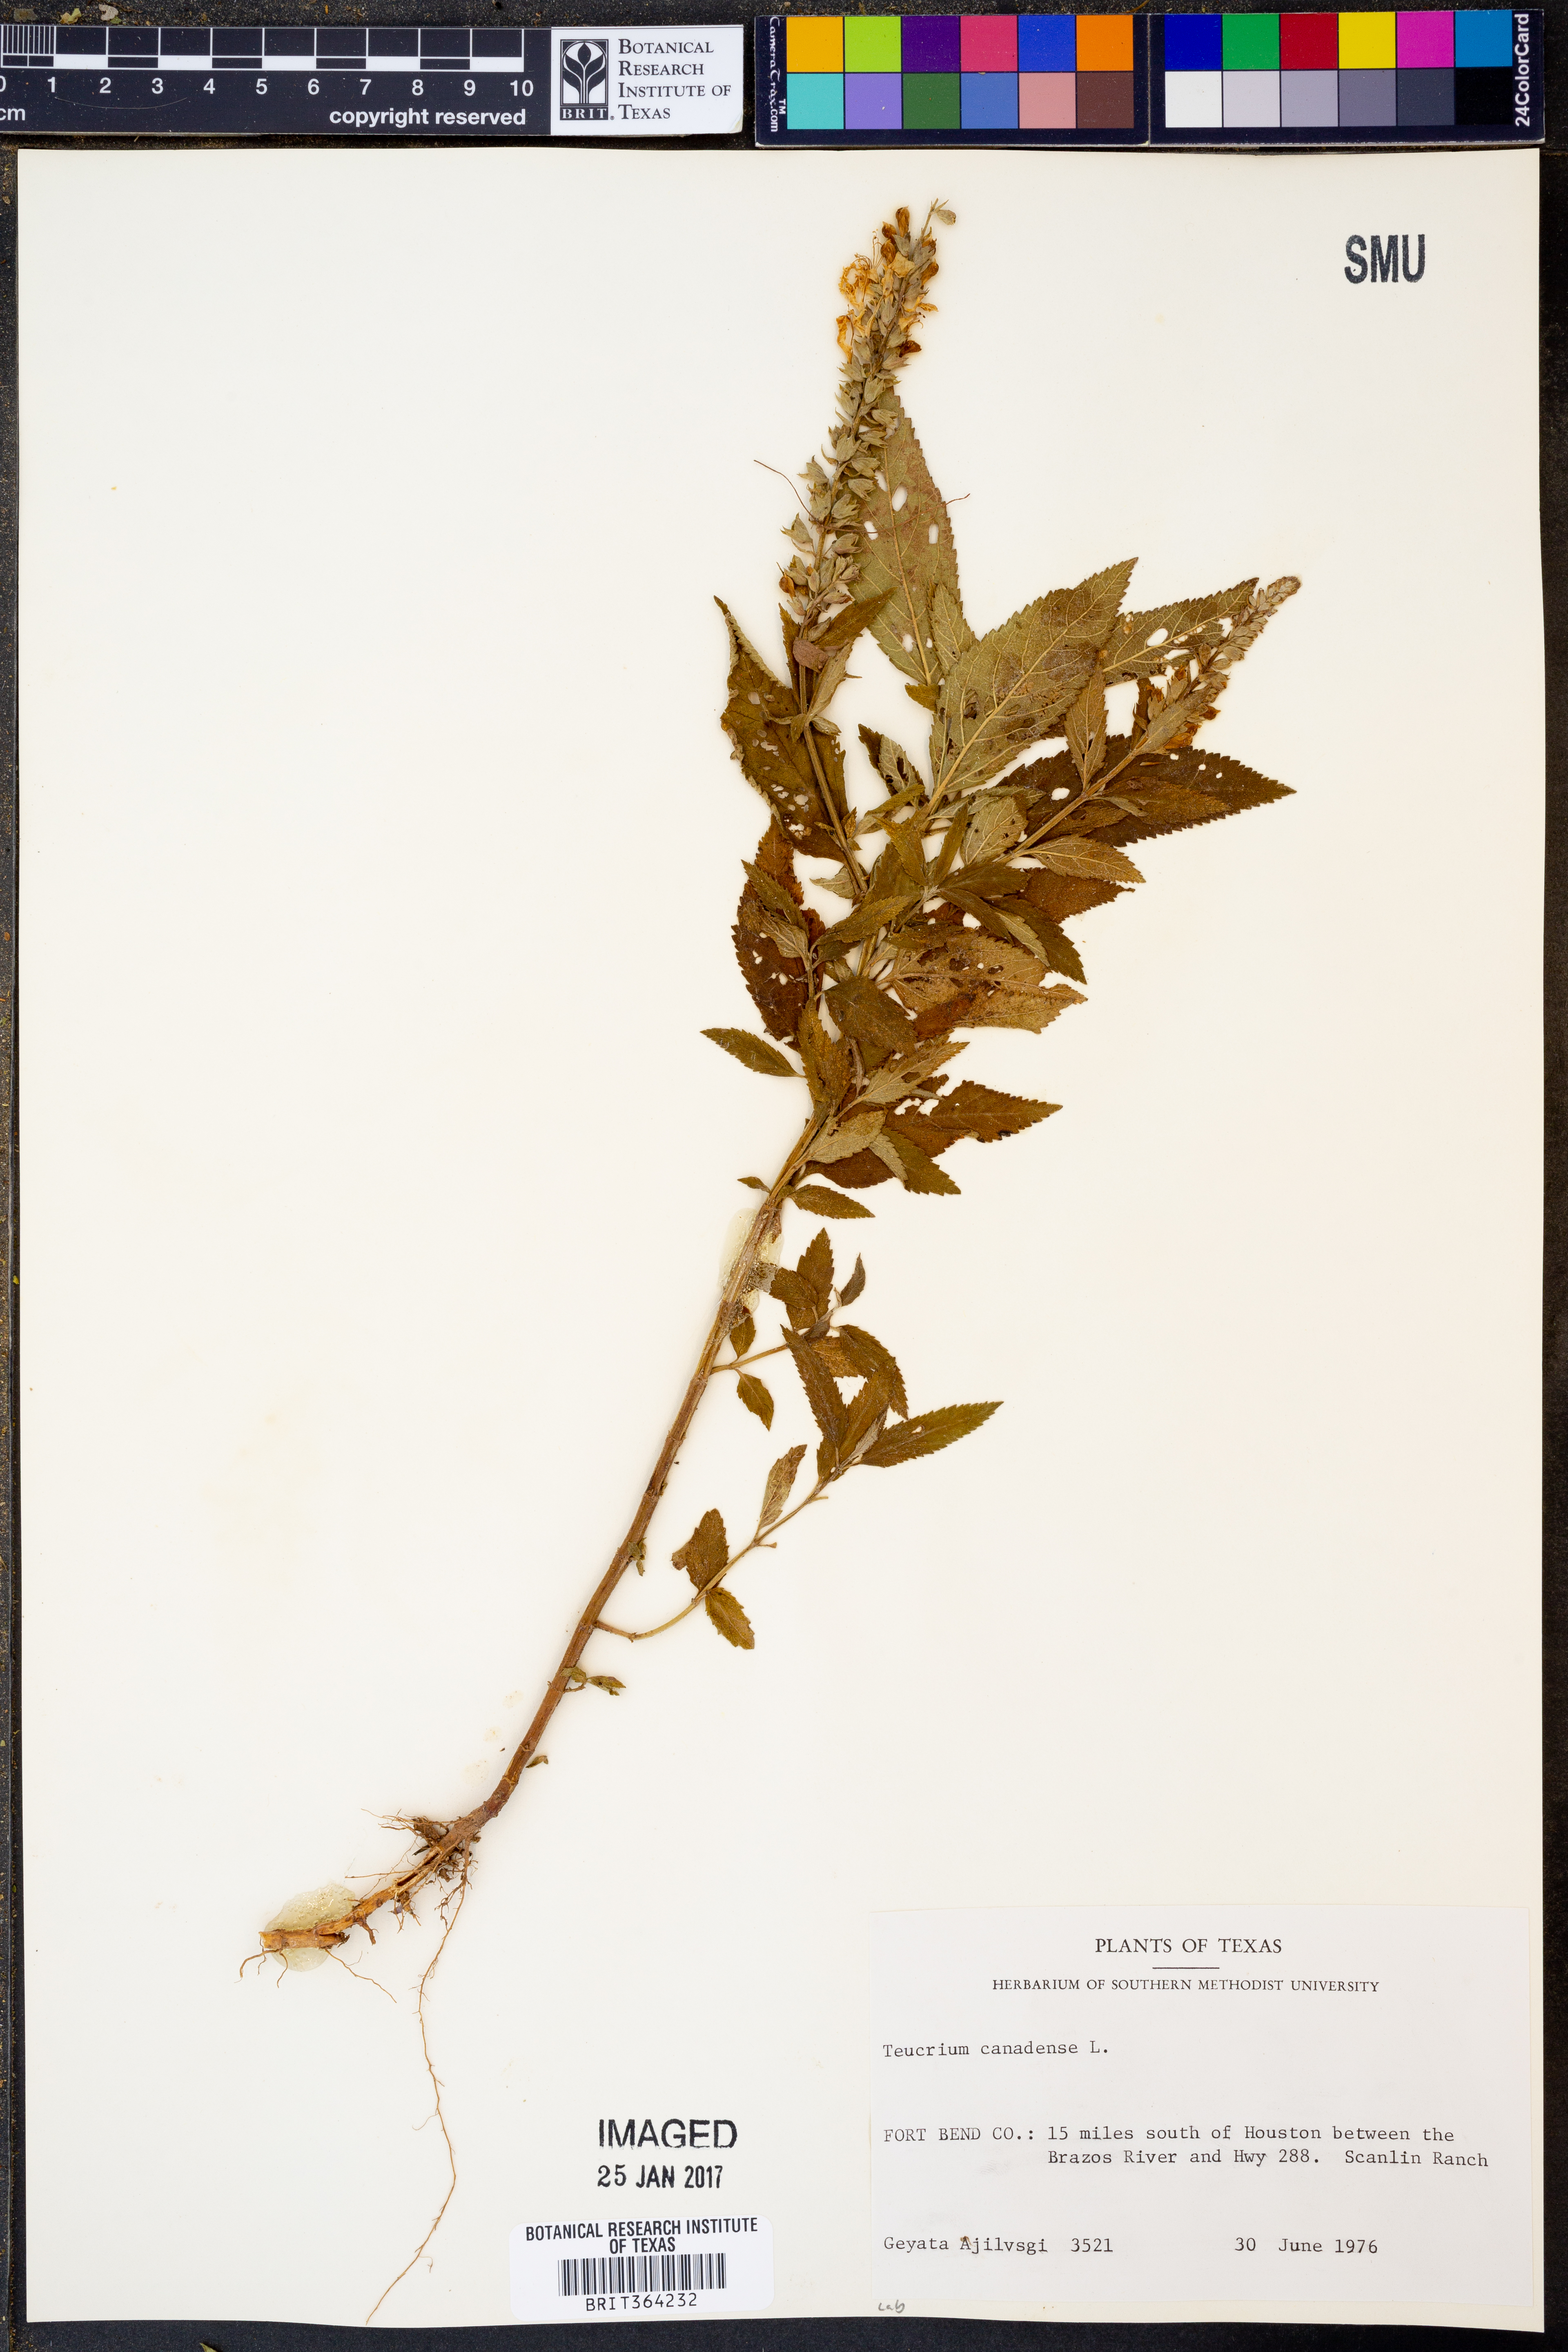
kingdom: Plantae
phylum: Tracheophyta
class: Magnoliopsida
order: Lamiales
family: Lamiaceae
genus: Teucrium
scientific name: Teucrium canadense
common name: American germander
